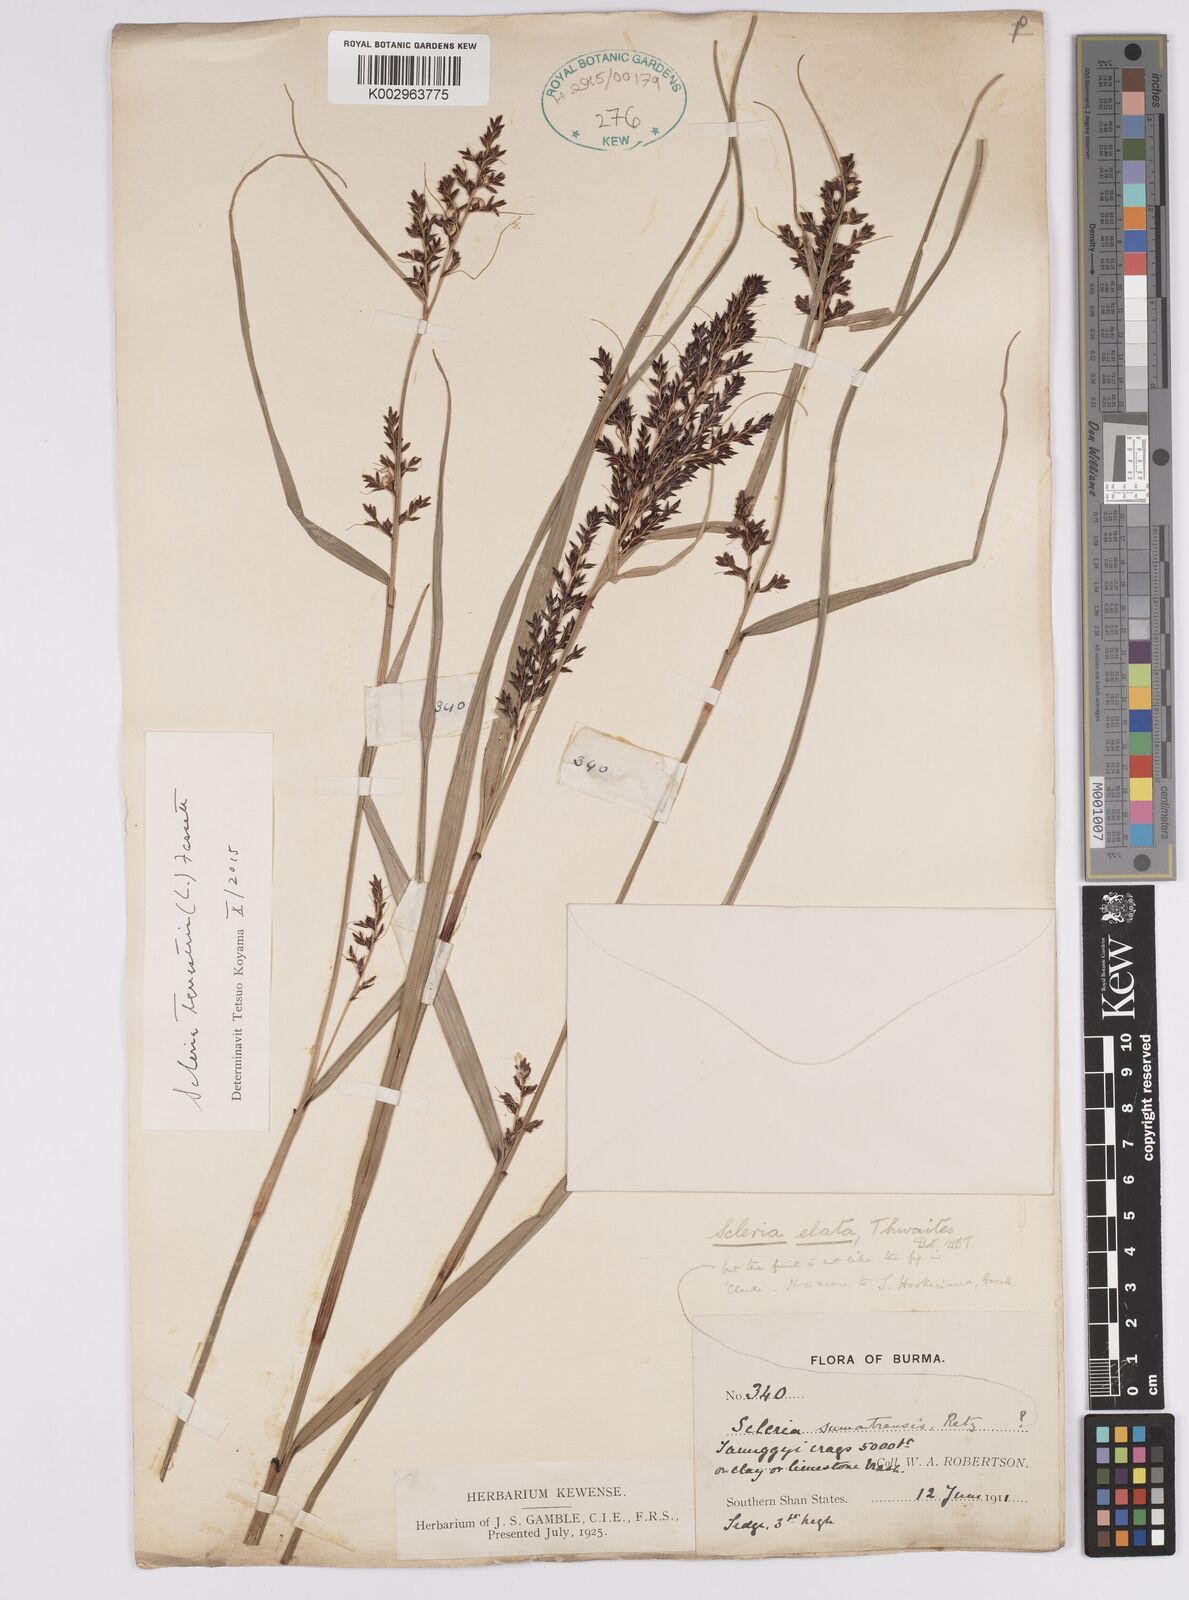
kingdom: Plantae
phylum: Tracheophyta
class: Liliopsida
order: Poales
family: Cyperaceae
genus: Scleria
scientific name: Scleria terrestris
